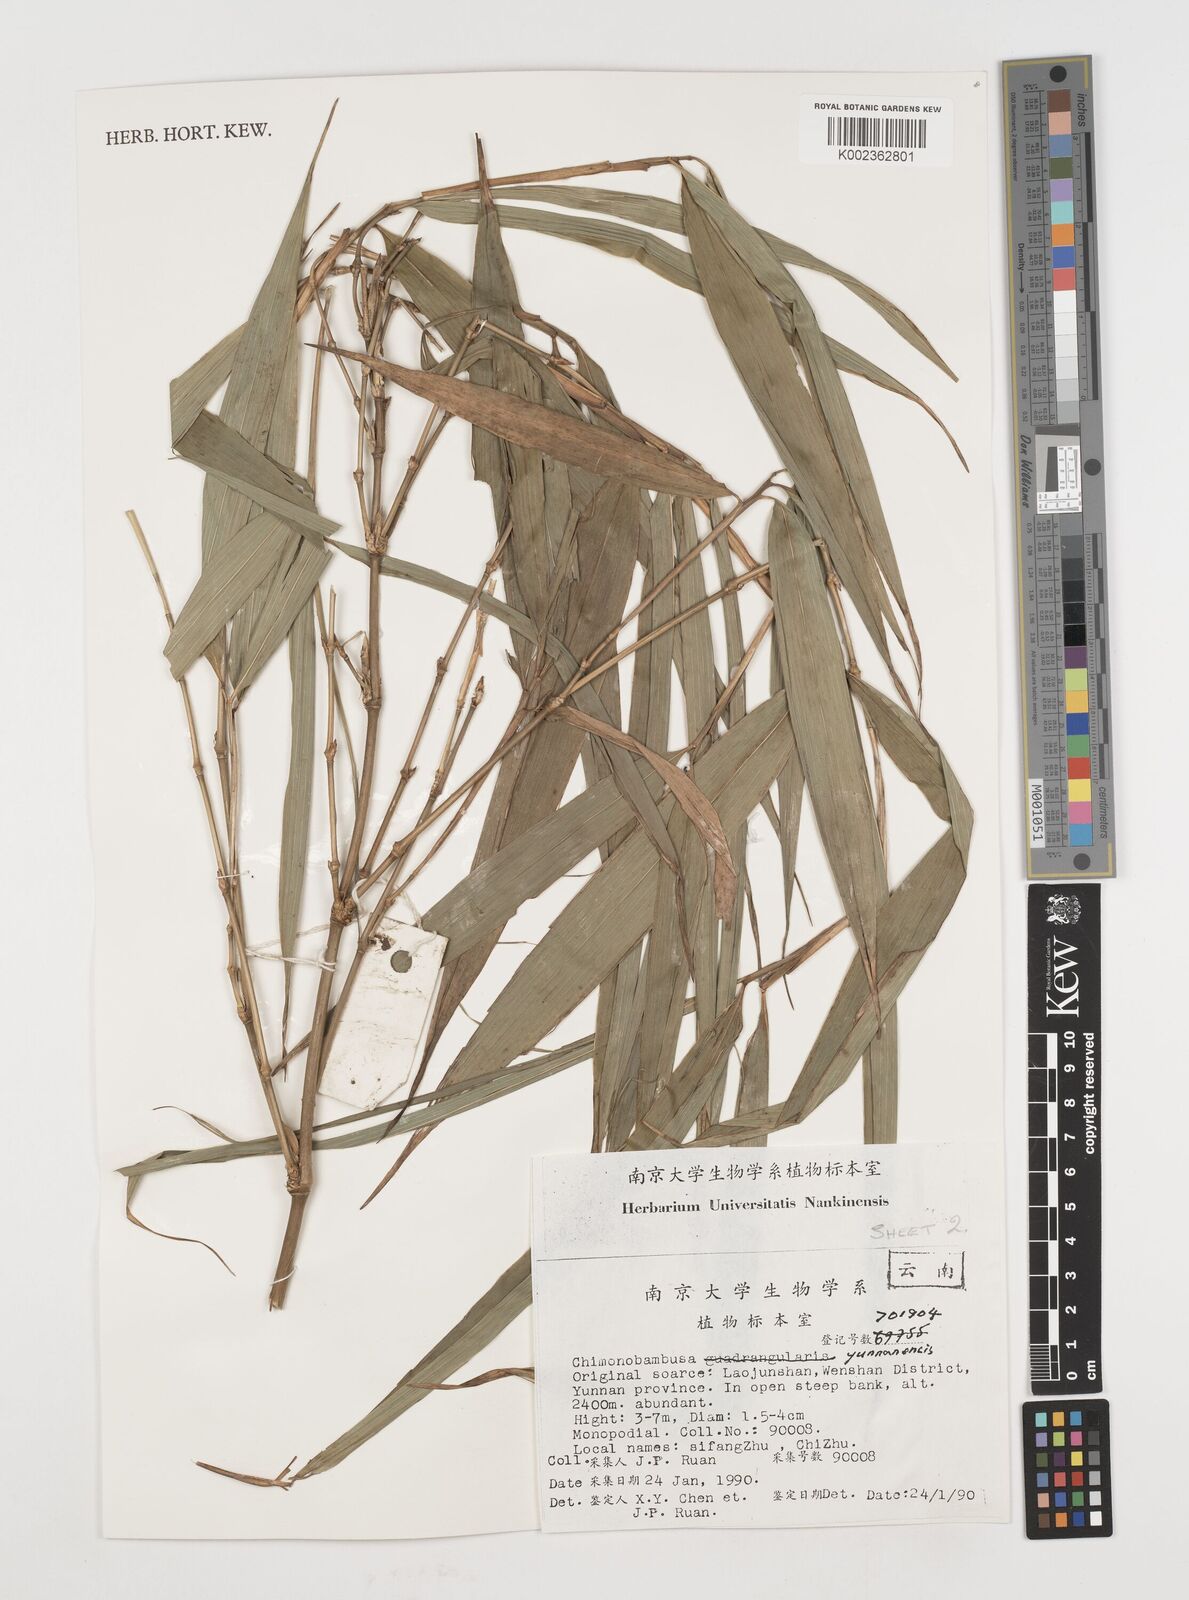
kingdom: Plantae
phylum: Tracheophyta
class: Liliopsida
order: Poales
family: Poaceae
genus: Chimonobambusa
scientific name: Chimonobambusa ningnanica
